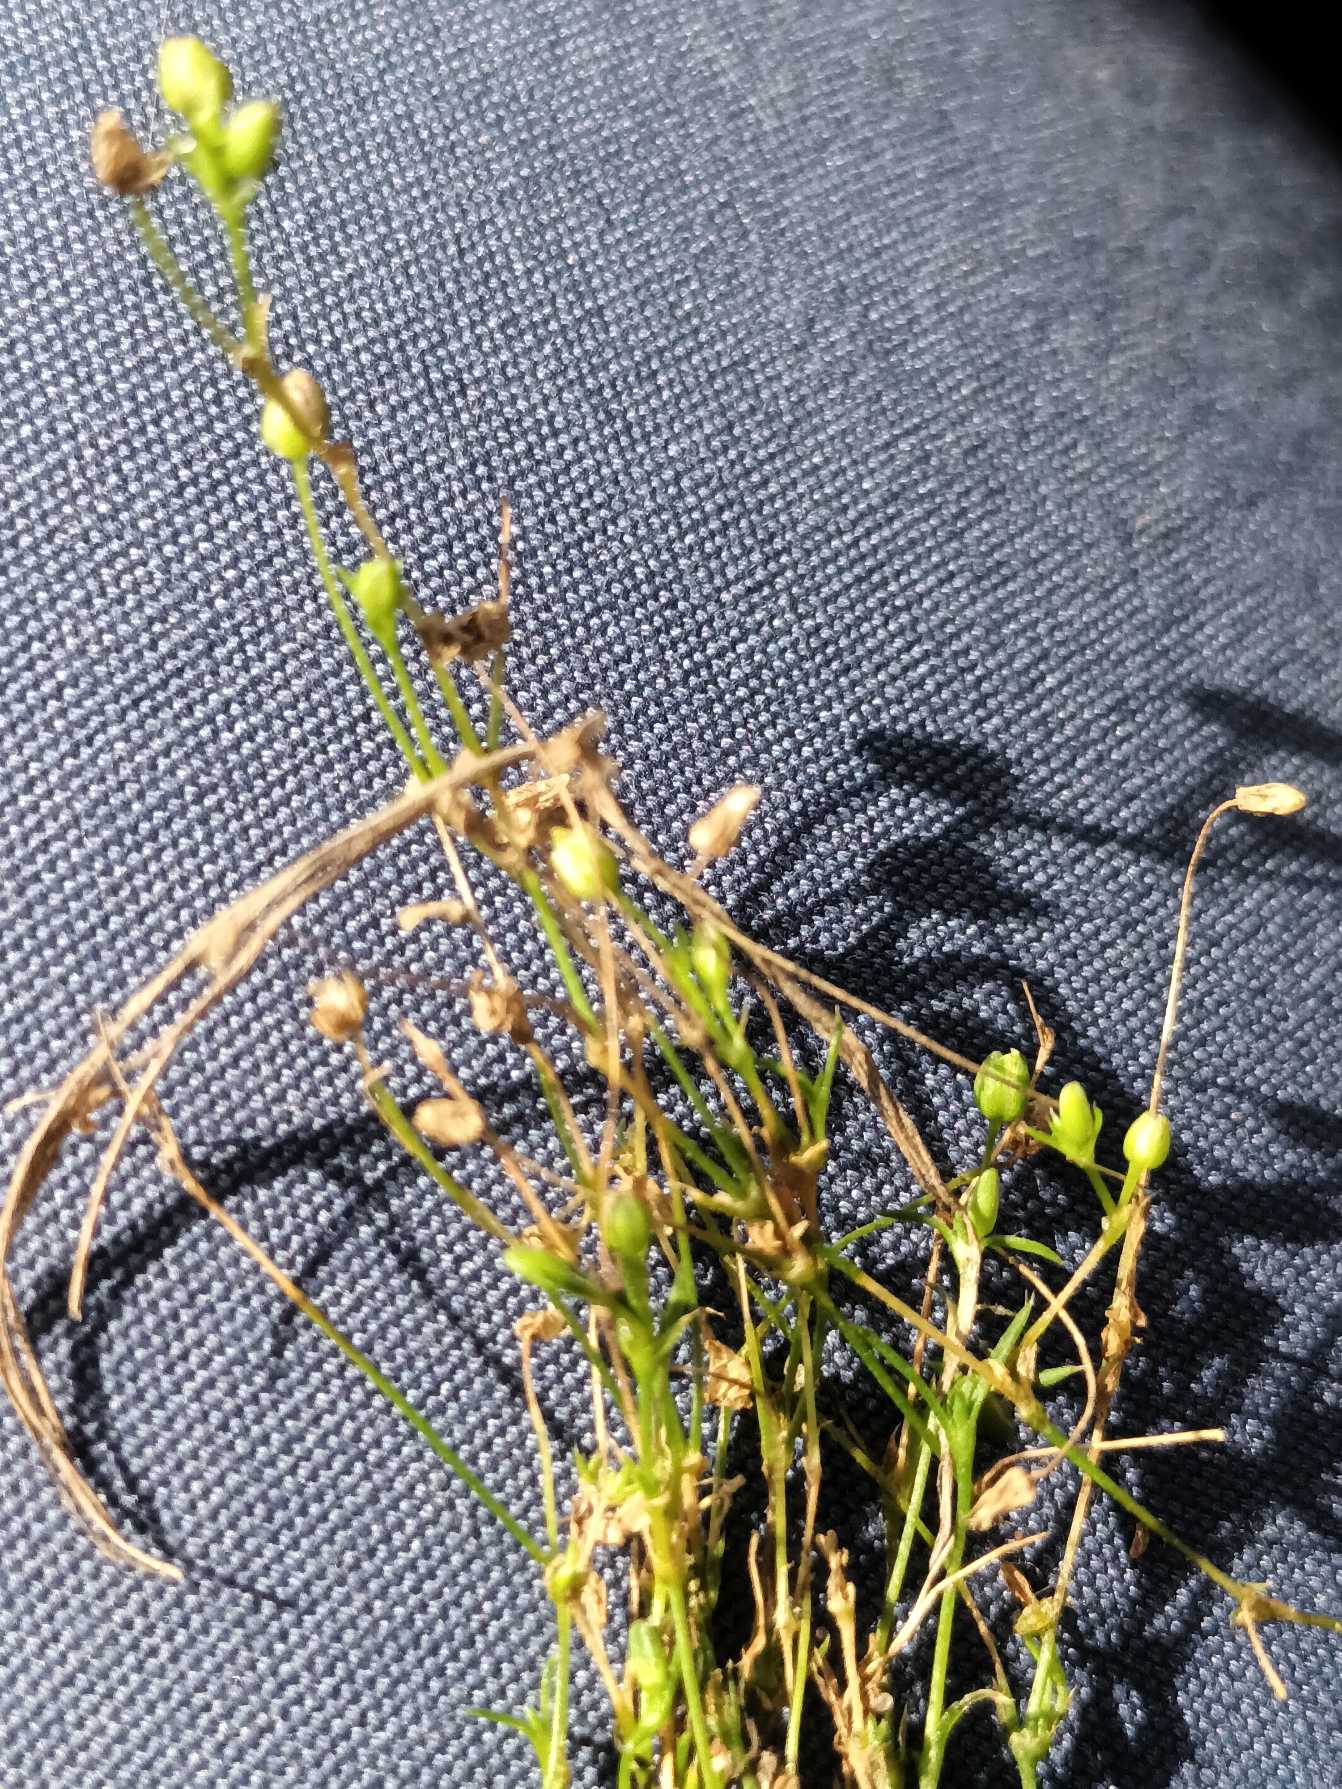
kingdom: Plantae
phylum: Tracheophyta
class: Magnoliopsida
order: Caryophyllales
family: Caryophyllaceae
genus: Sagina
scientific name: Sagina micropetala
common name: Håret firling
